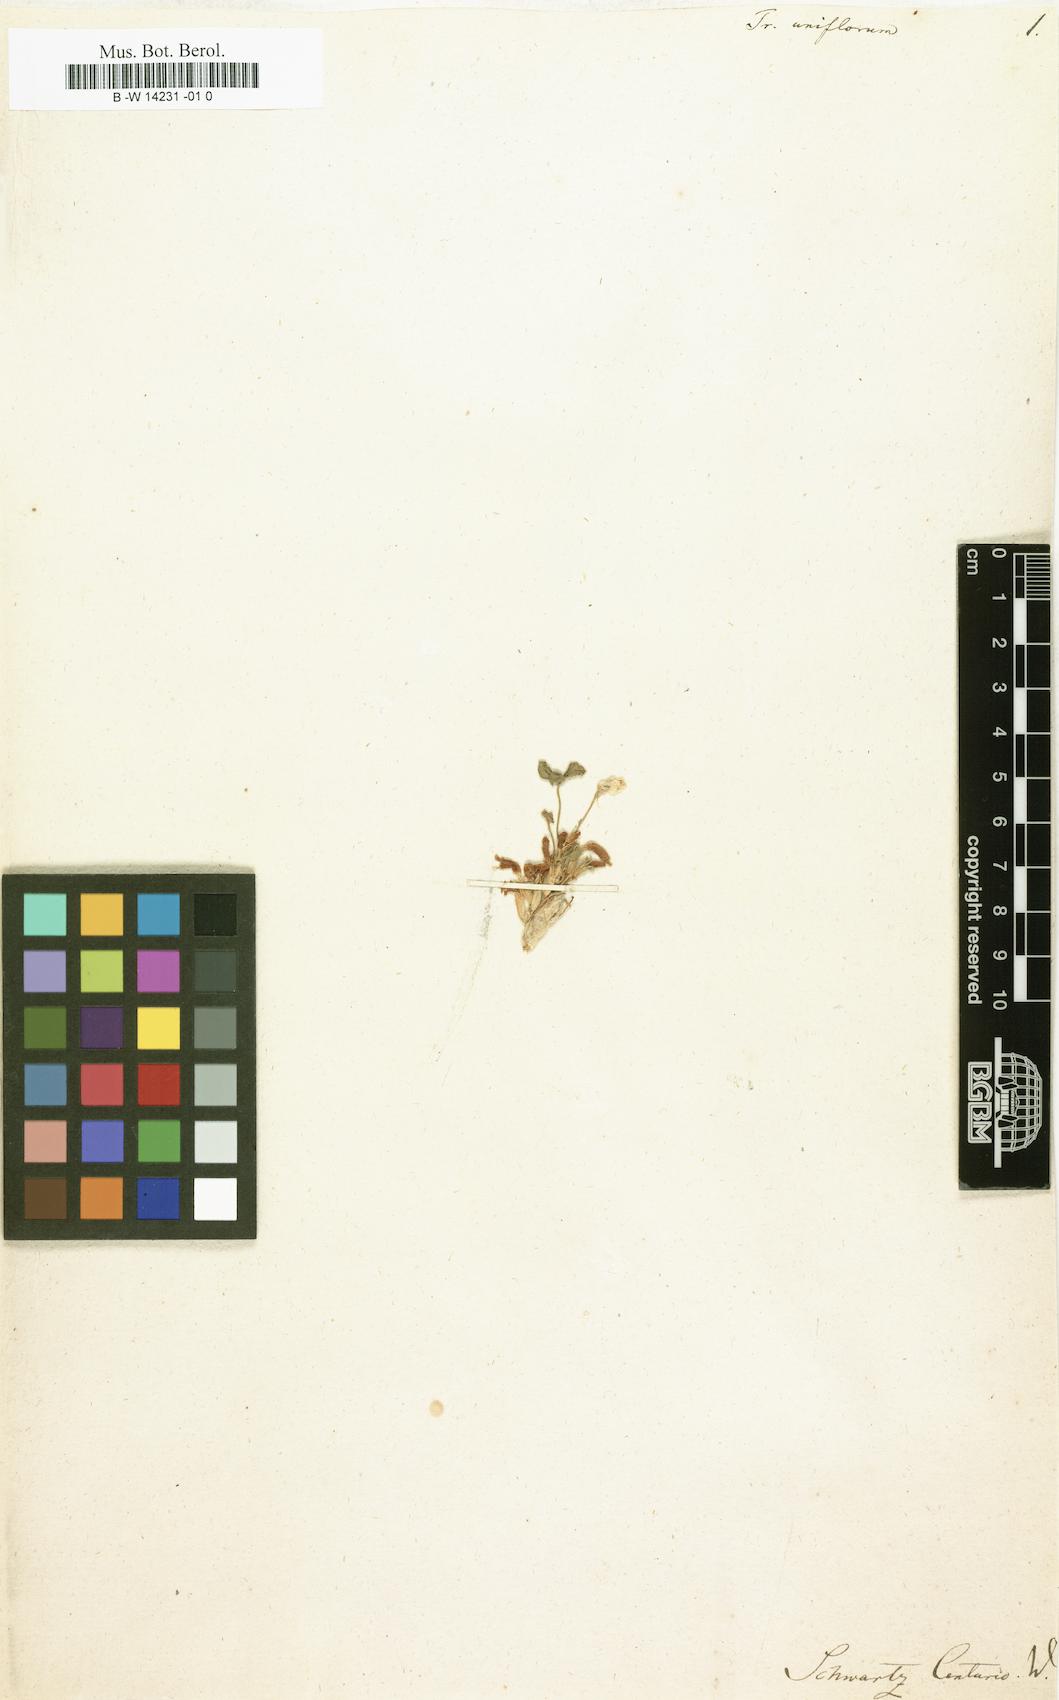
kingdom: Plantae
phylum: Tracheophyta
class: Magnoliopsida
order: Fabales
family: Fabaceae
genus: Trifolium
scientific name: Trifolium uniflorum
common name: One-flower clover
